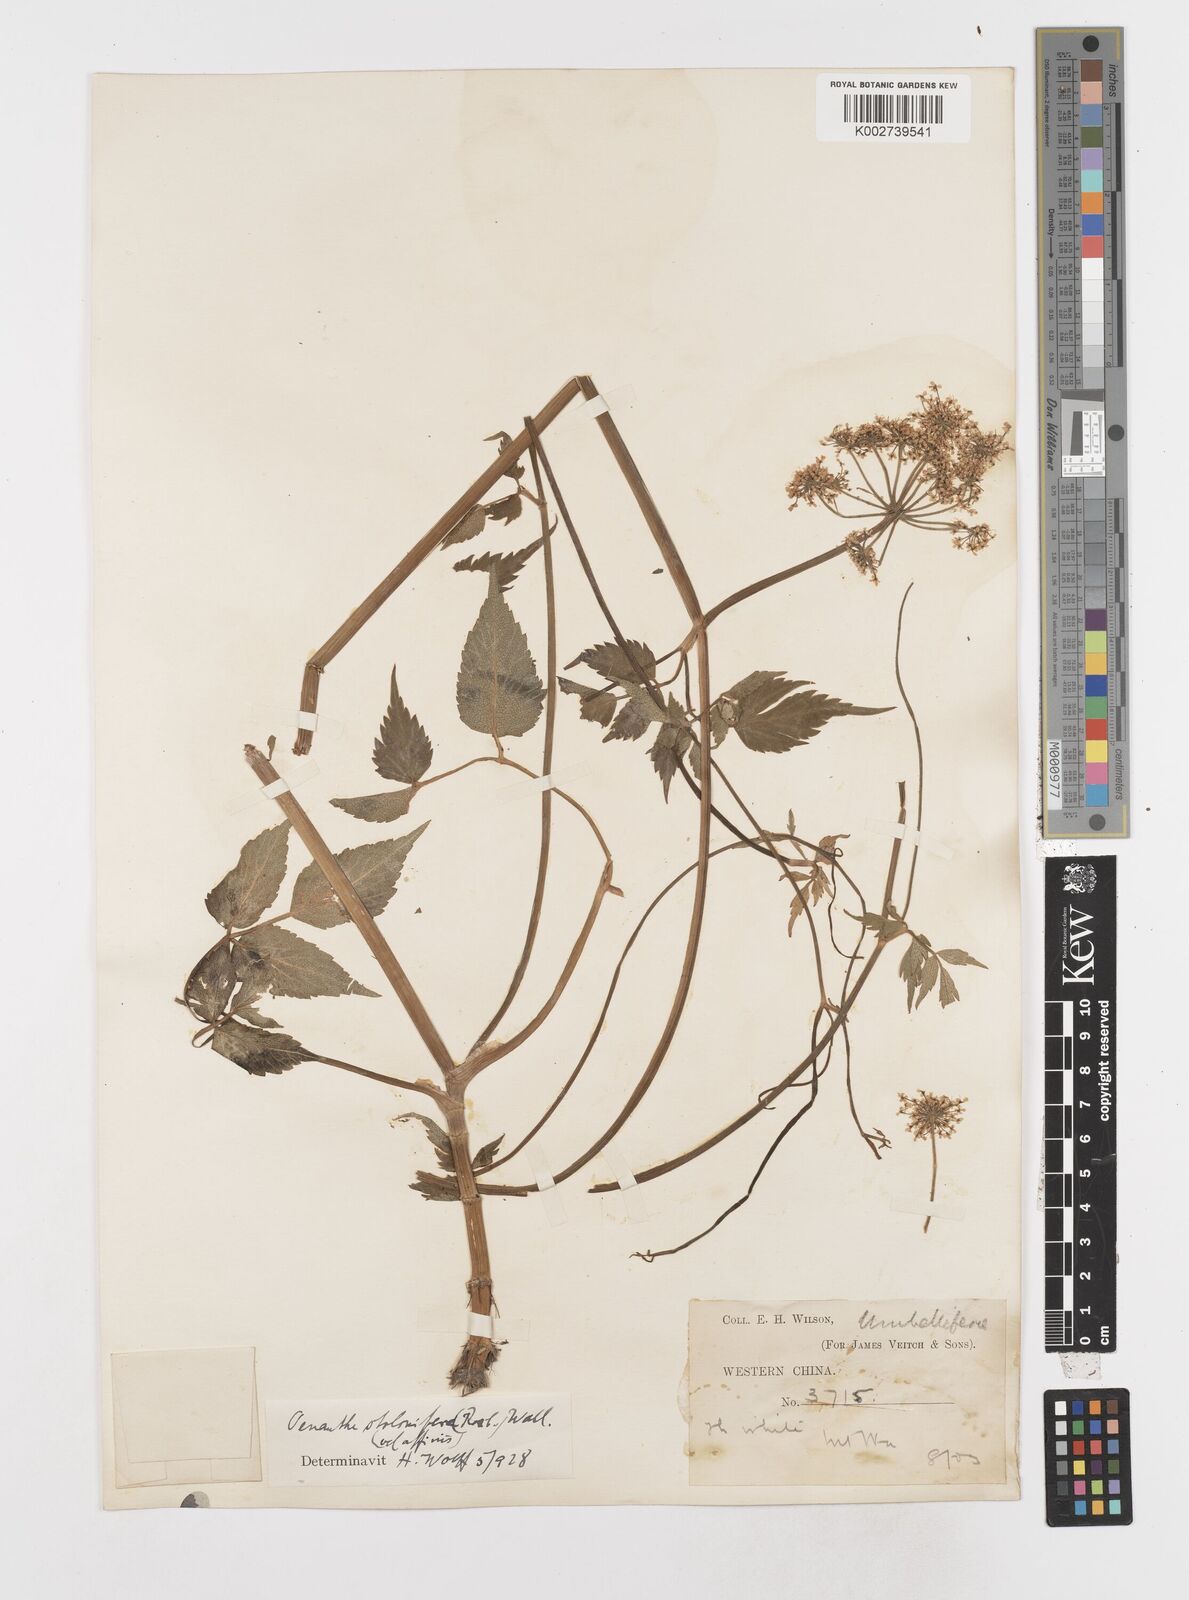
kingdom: Plantae
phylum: Tracheophyta
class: Magnoliopsida
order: Apiales
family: Apiaceae
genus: Oenanthe
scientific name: Oenanthe javanica
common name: Java water-dropwort
